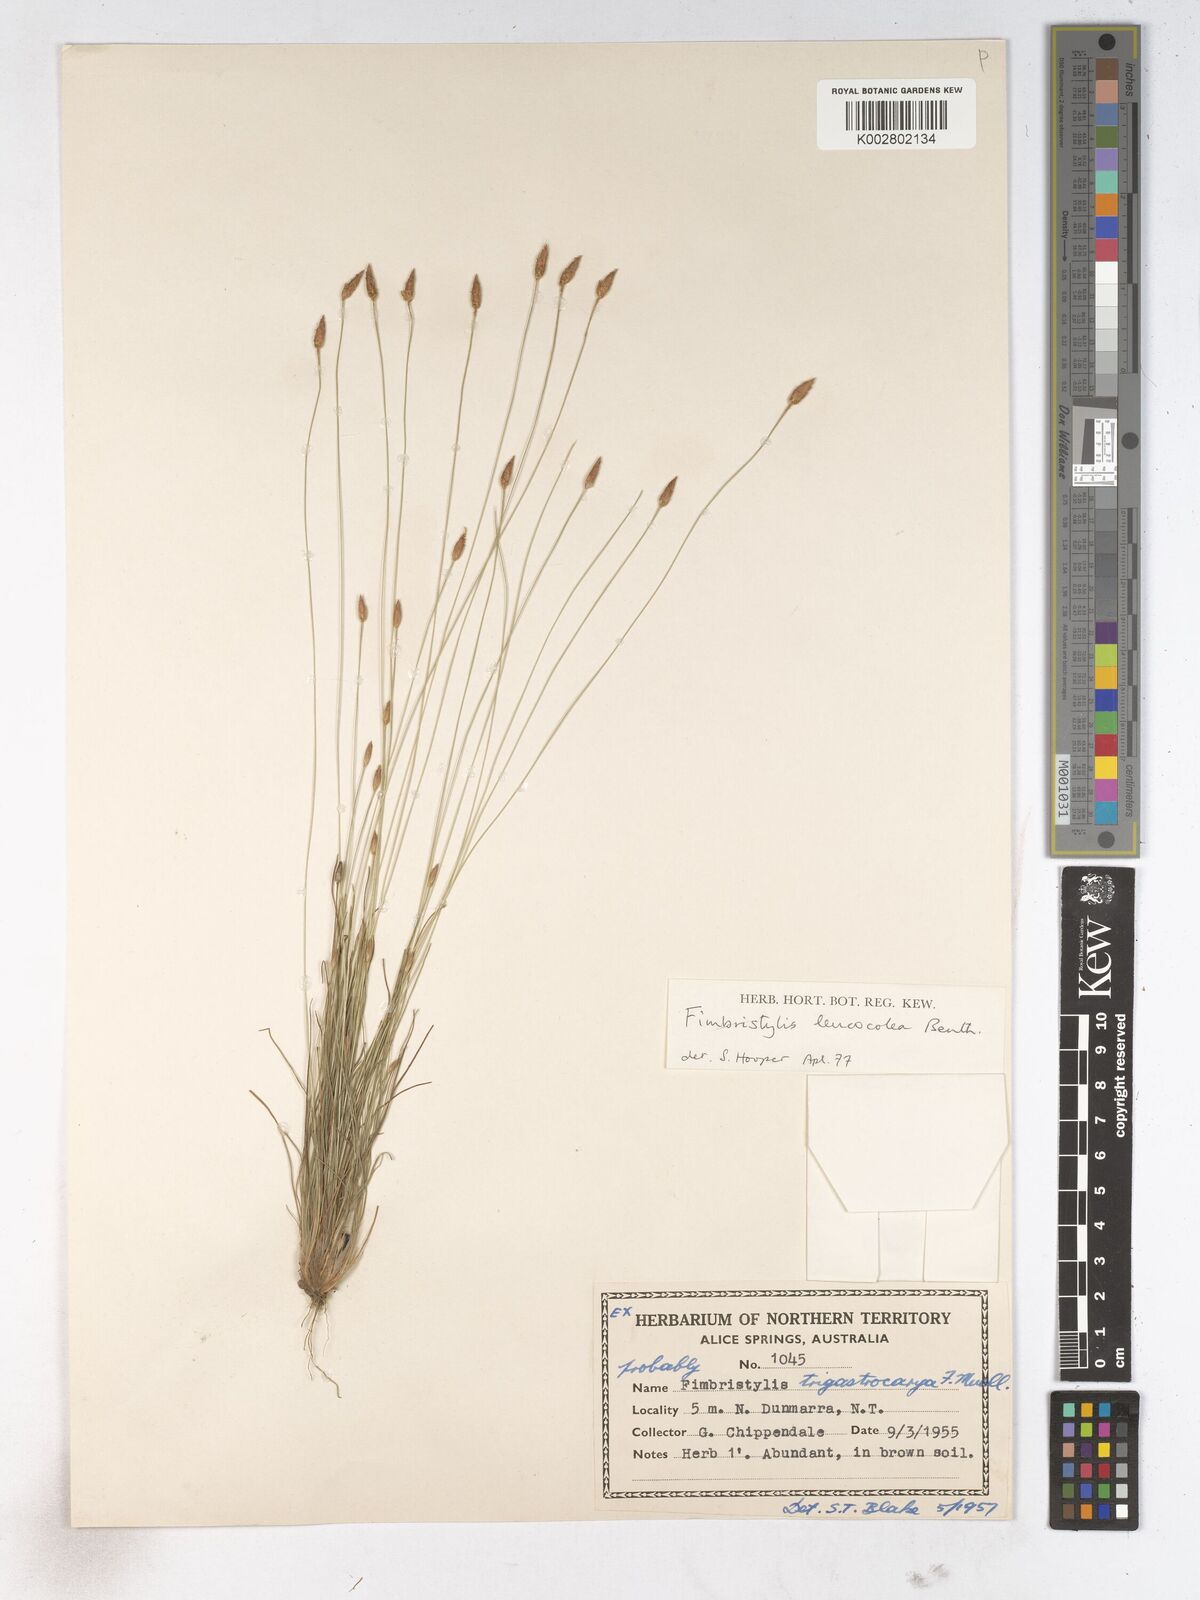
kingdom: Plantae
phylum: Tracheophyta
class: Liliopsida
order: Poales
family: Cyperaceae
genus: Fimbristylis
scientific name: Fimbristylis leucocolea
